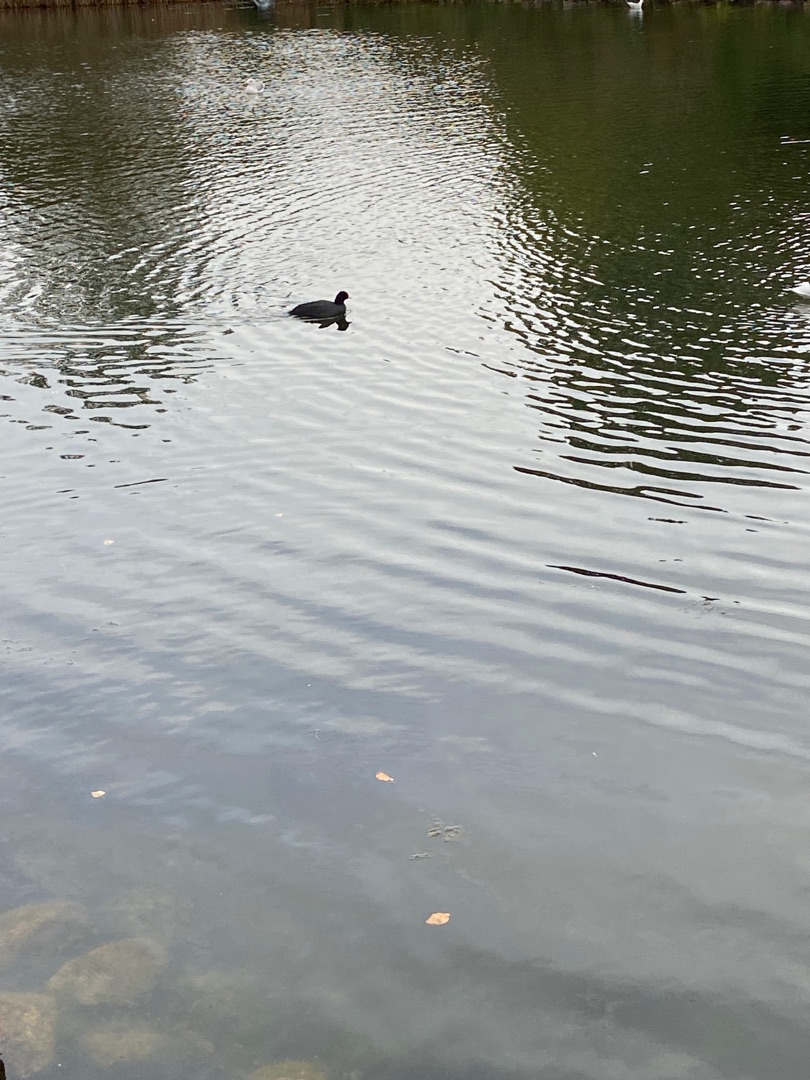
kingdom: Animalia
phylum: Chordata
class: Aves
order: Gruiformes
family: Rallidae
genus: Fulica
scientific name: Fulica atra
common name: Blishøne
